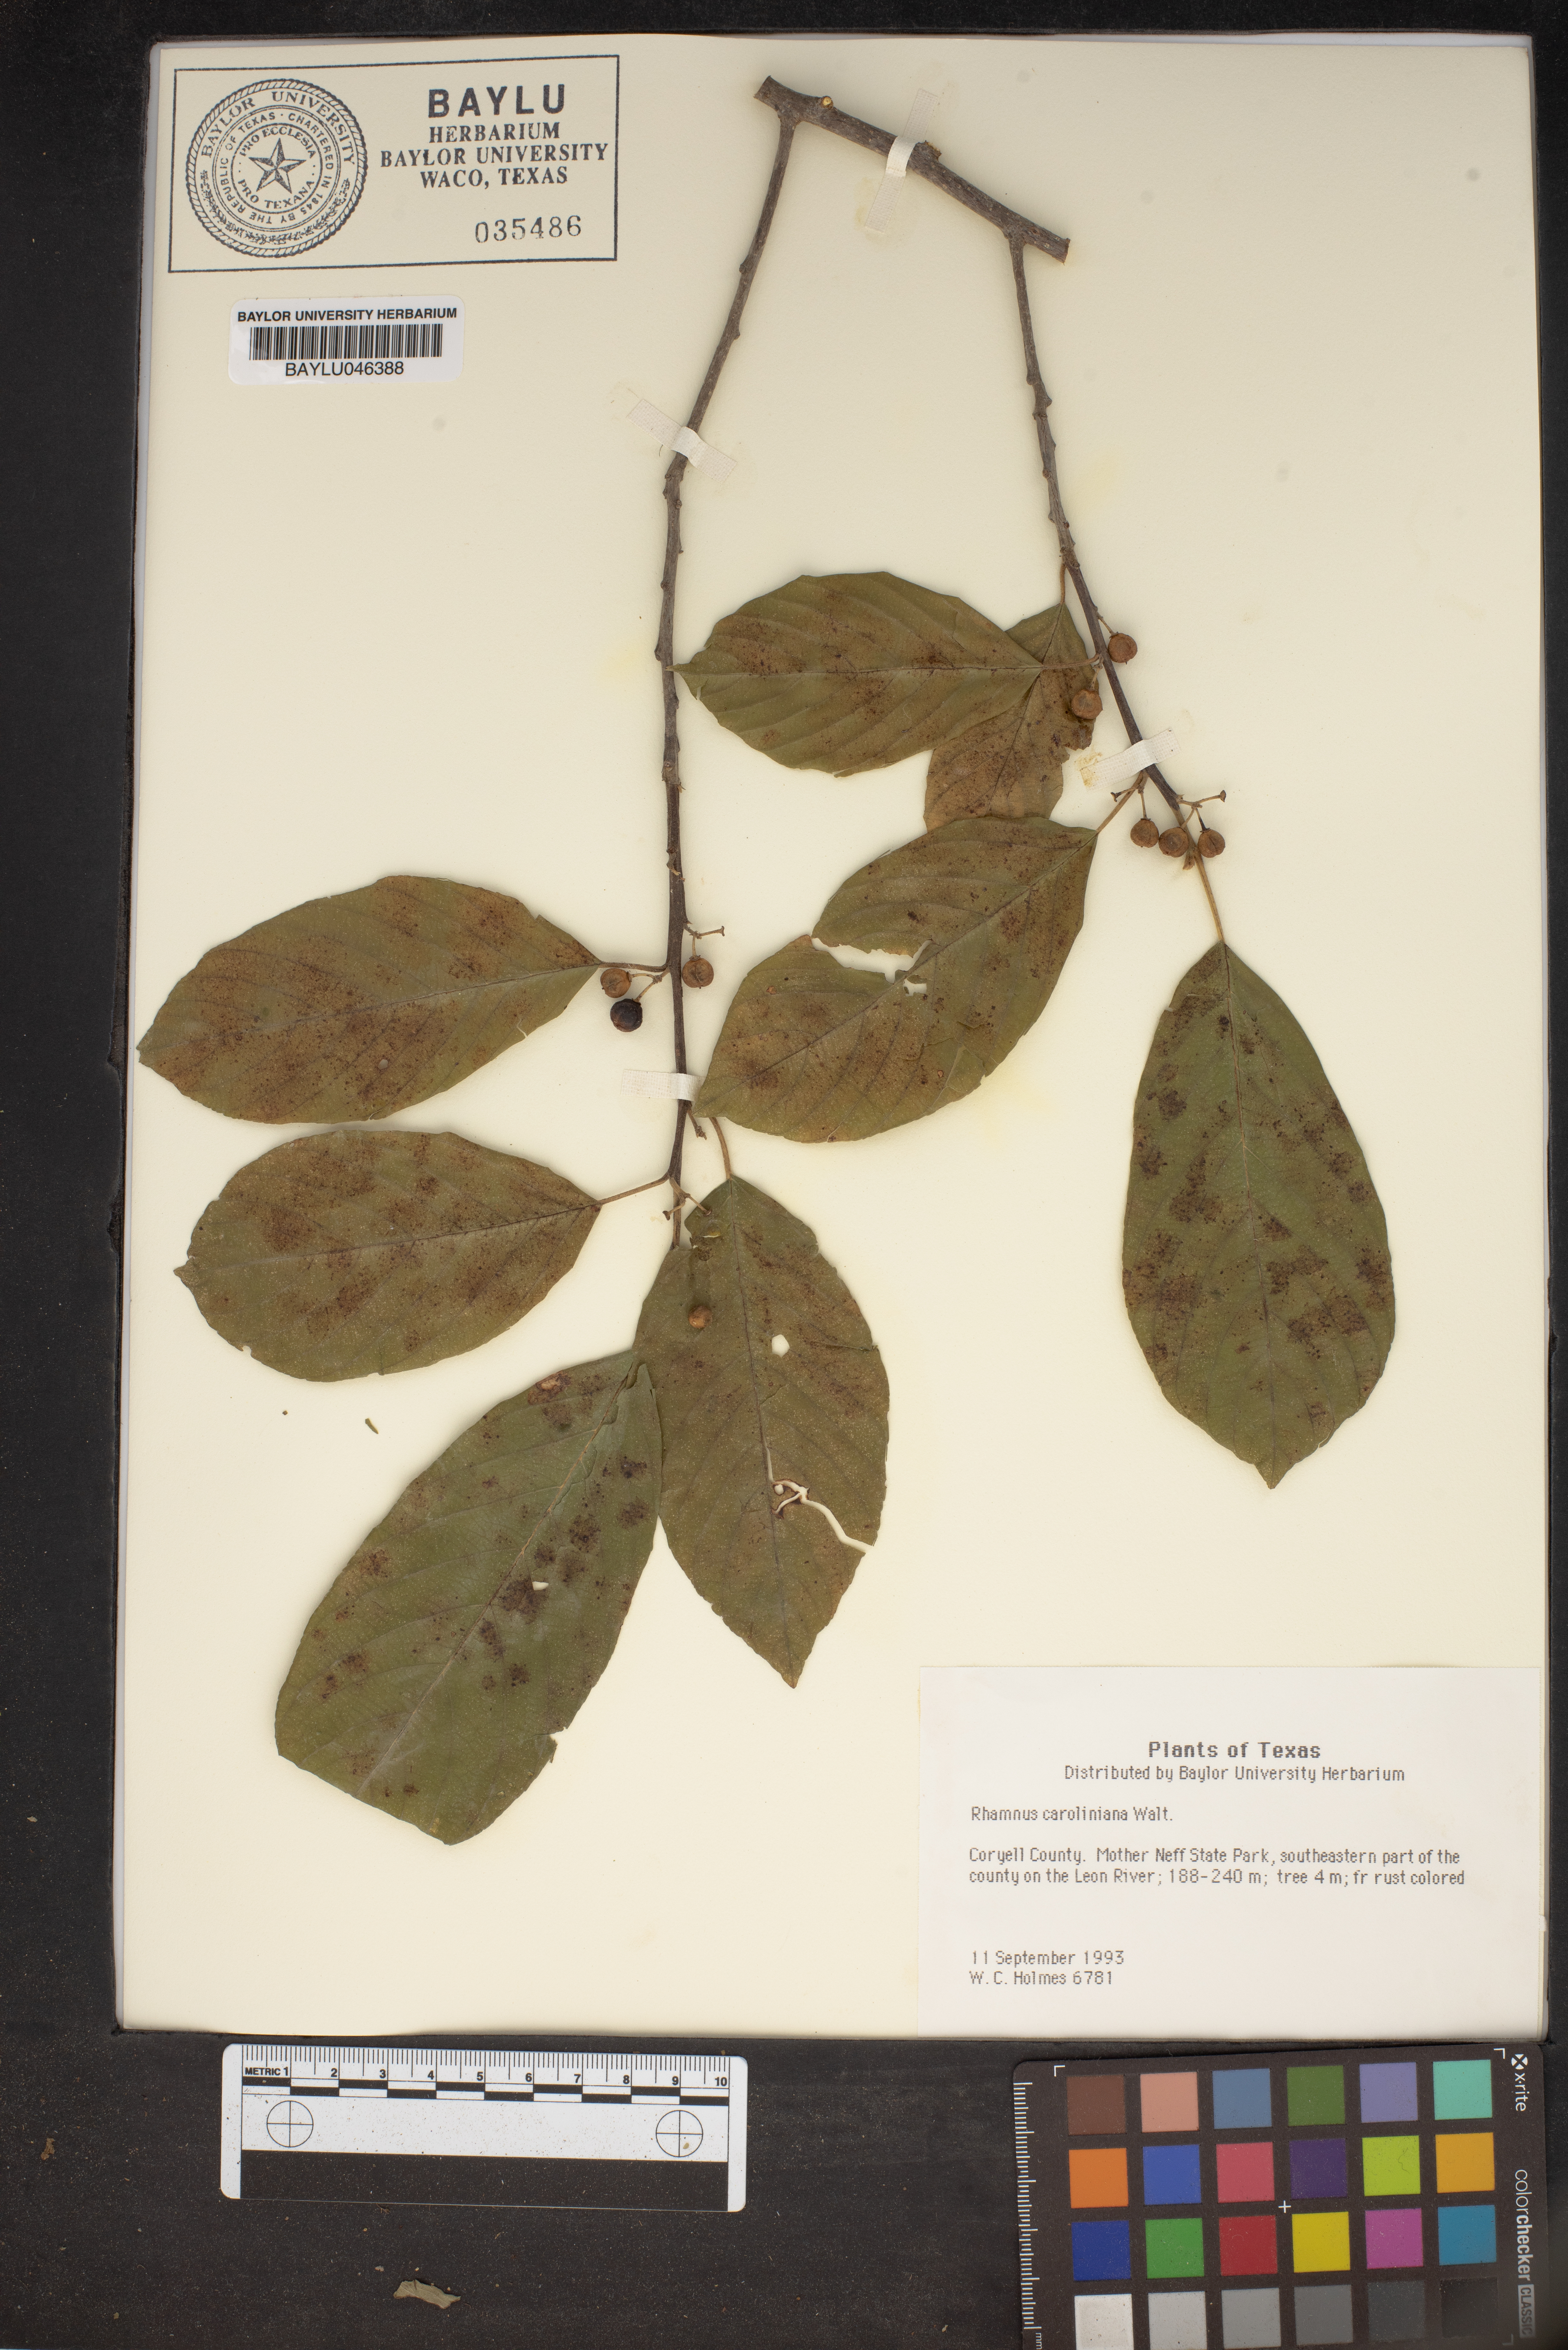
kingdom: Plantae
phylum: Tracheophyta
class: Magnoliopsida
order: Rosales
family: Rhamnaceae
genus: Frangula
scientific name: Frangula caroliniana
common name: Carolina buckthorn
